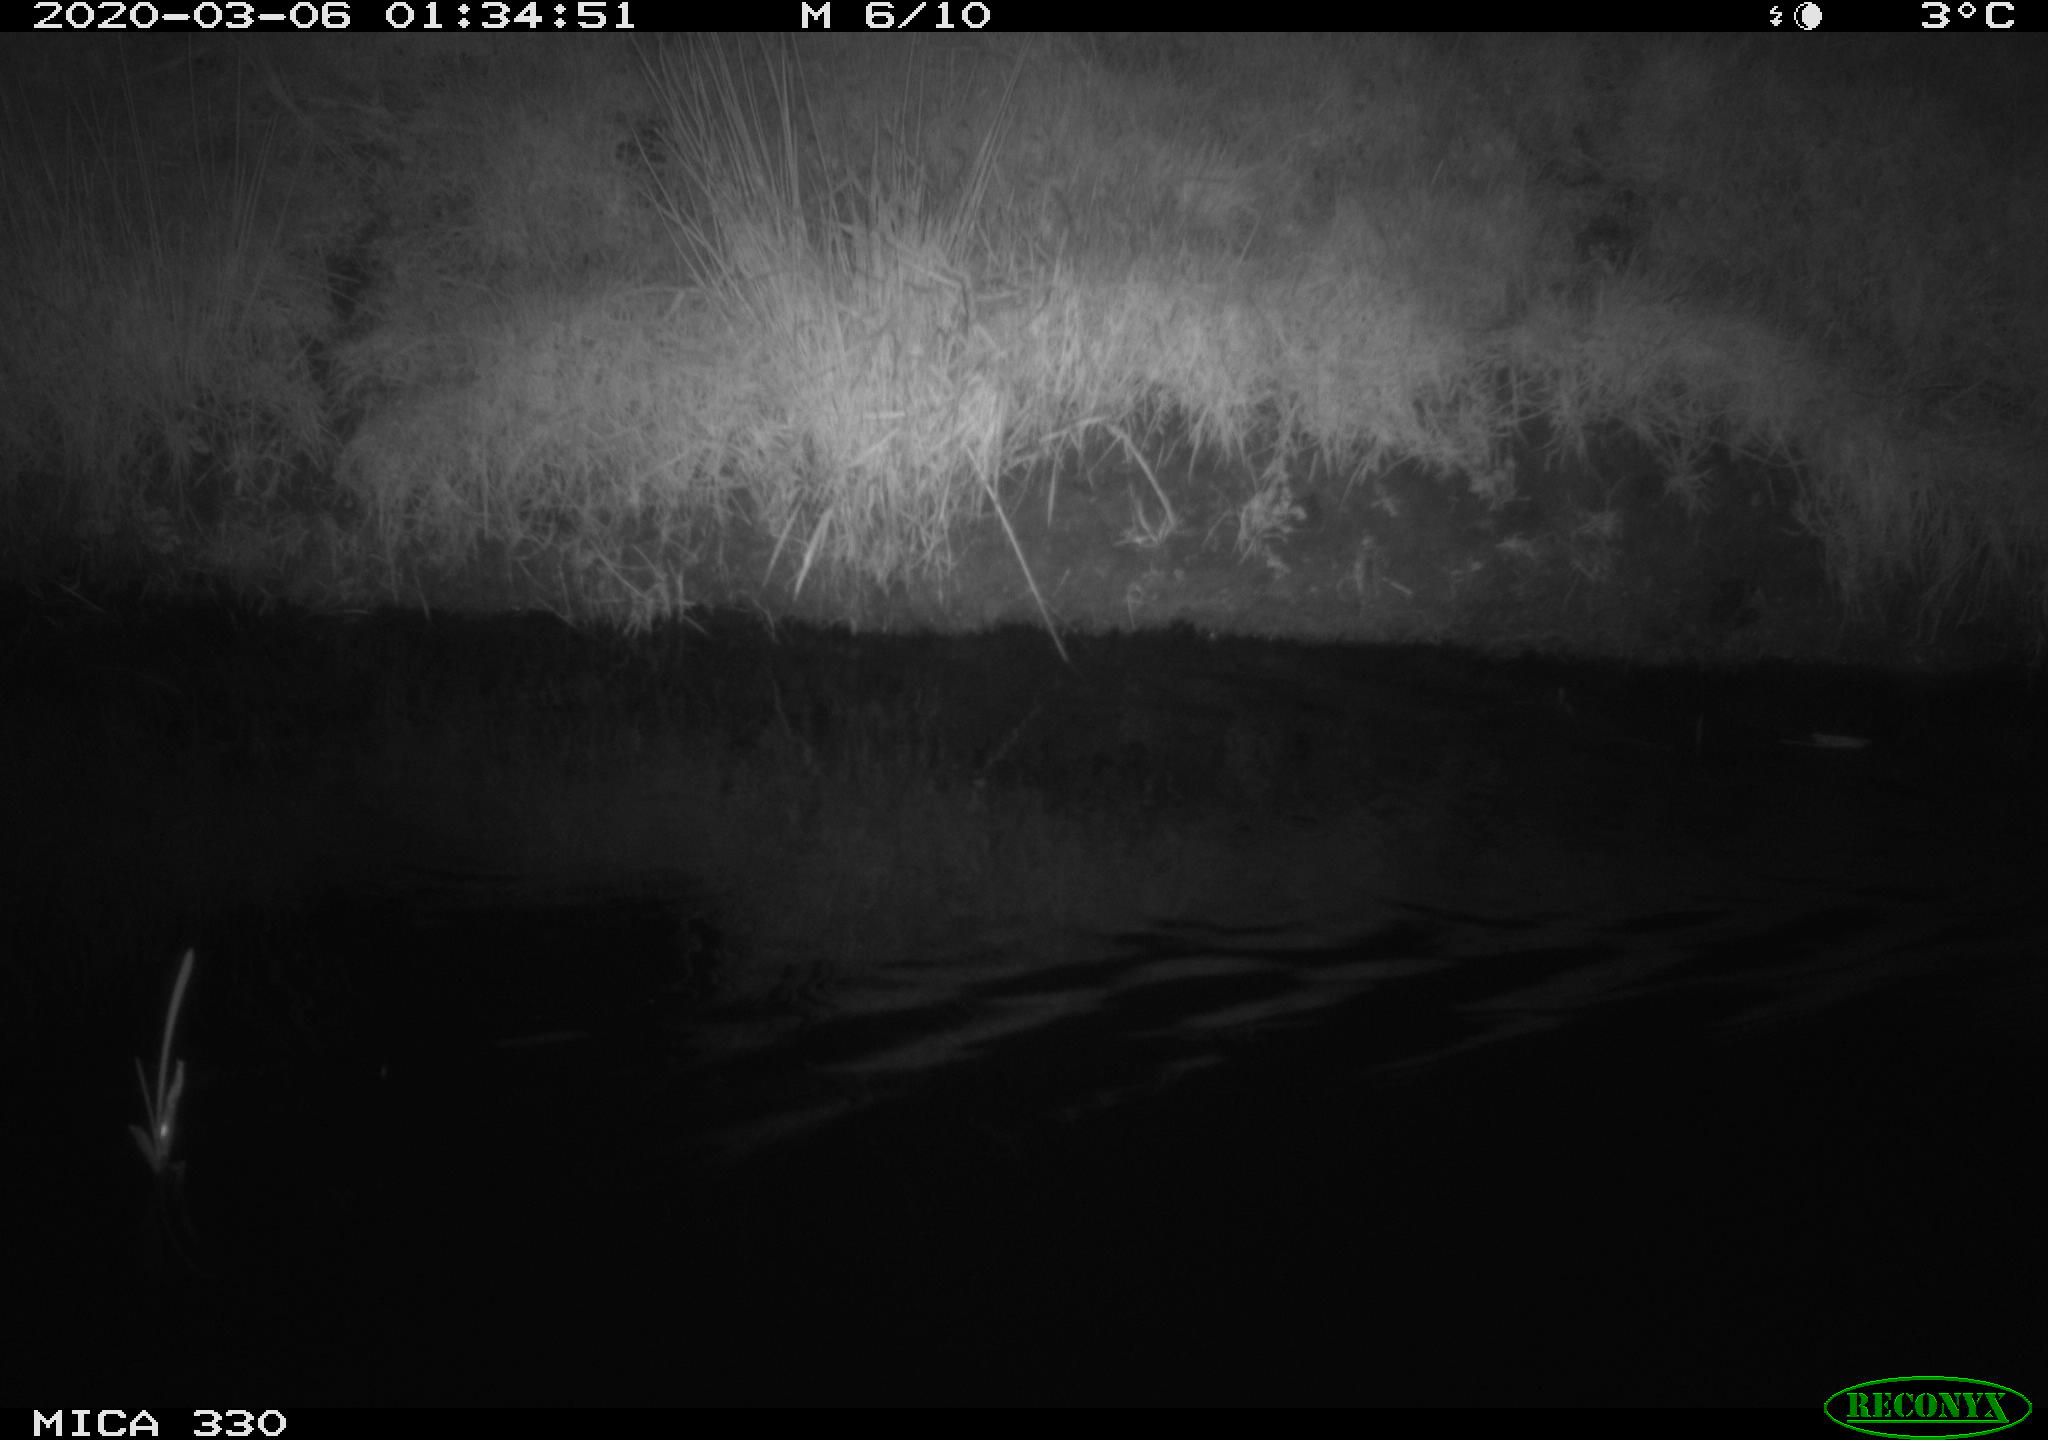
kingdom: Animalia
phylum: Chordata
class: Aves
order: Anseriformes
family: Anatidae
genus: Anas
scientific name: Anas platyrhynchos
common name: Mallard
